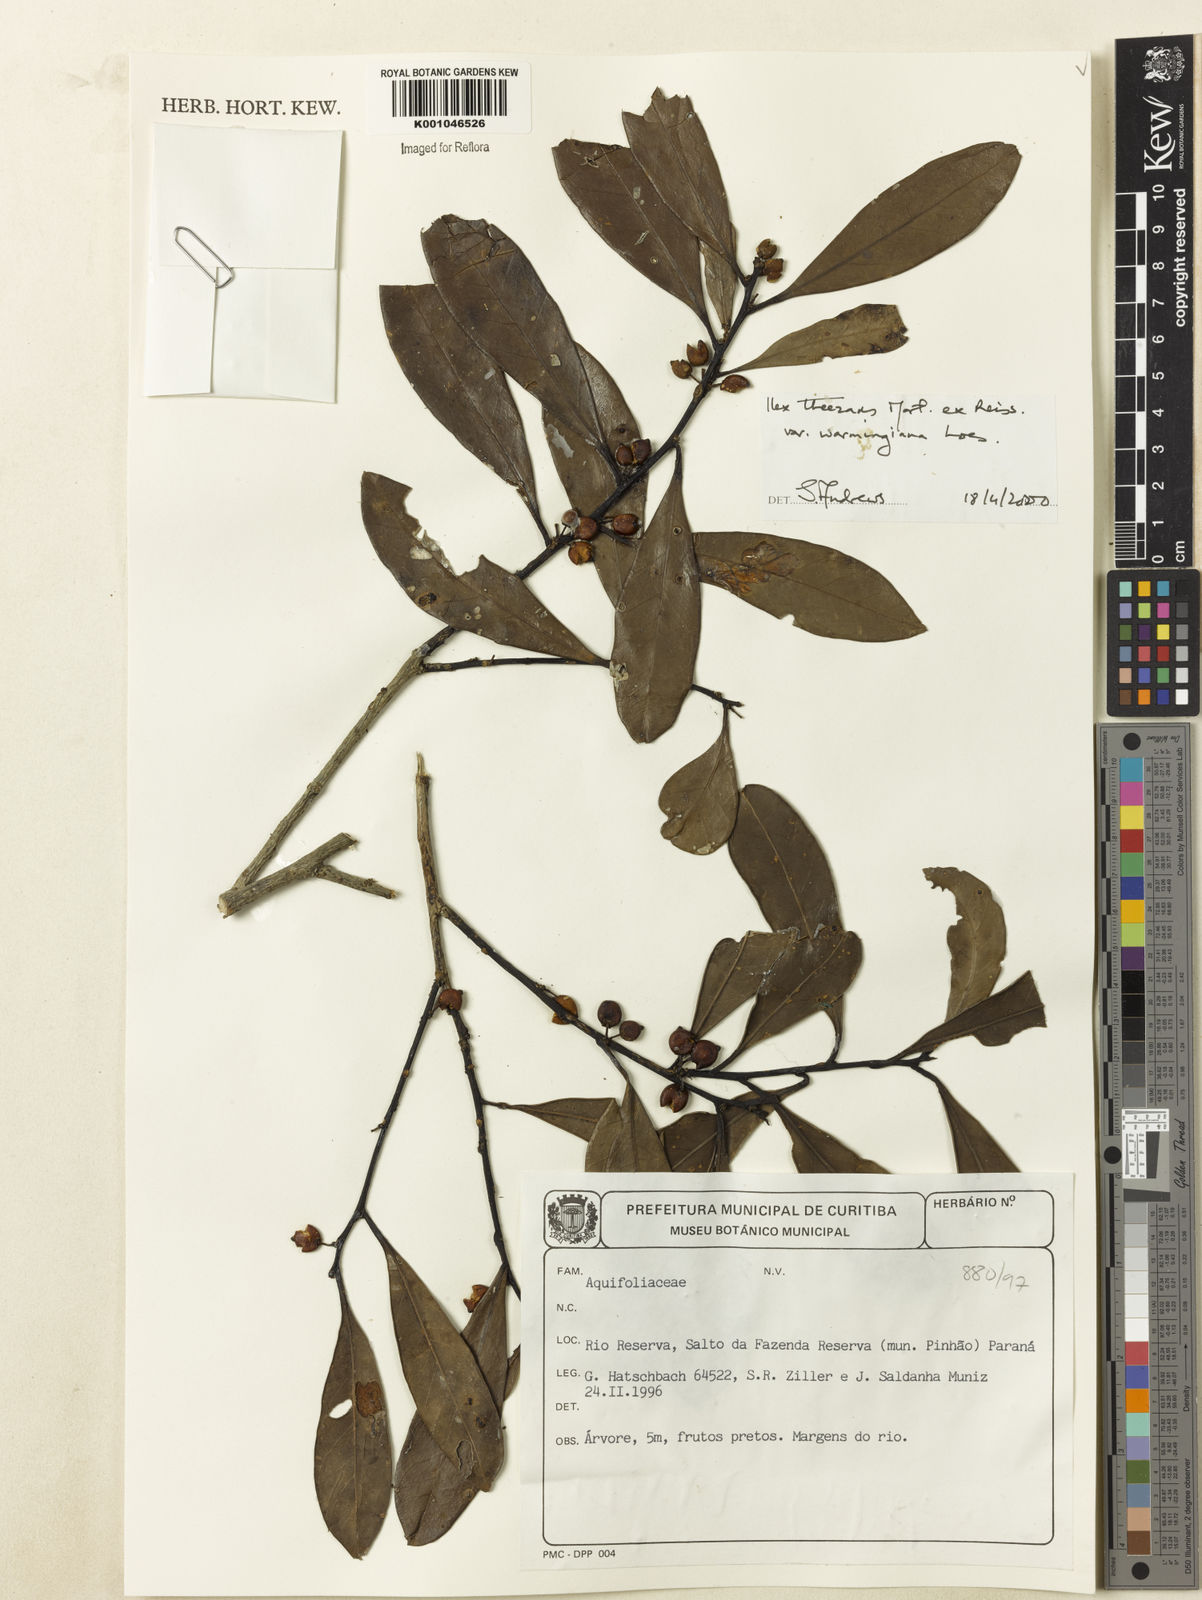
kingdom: Plantae
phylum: Tracheophyta
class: Magnoliopsida
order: Aquifoliales
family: Aquifoliaceae
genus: Ilex
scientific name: Ilex theezans
